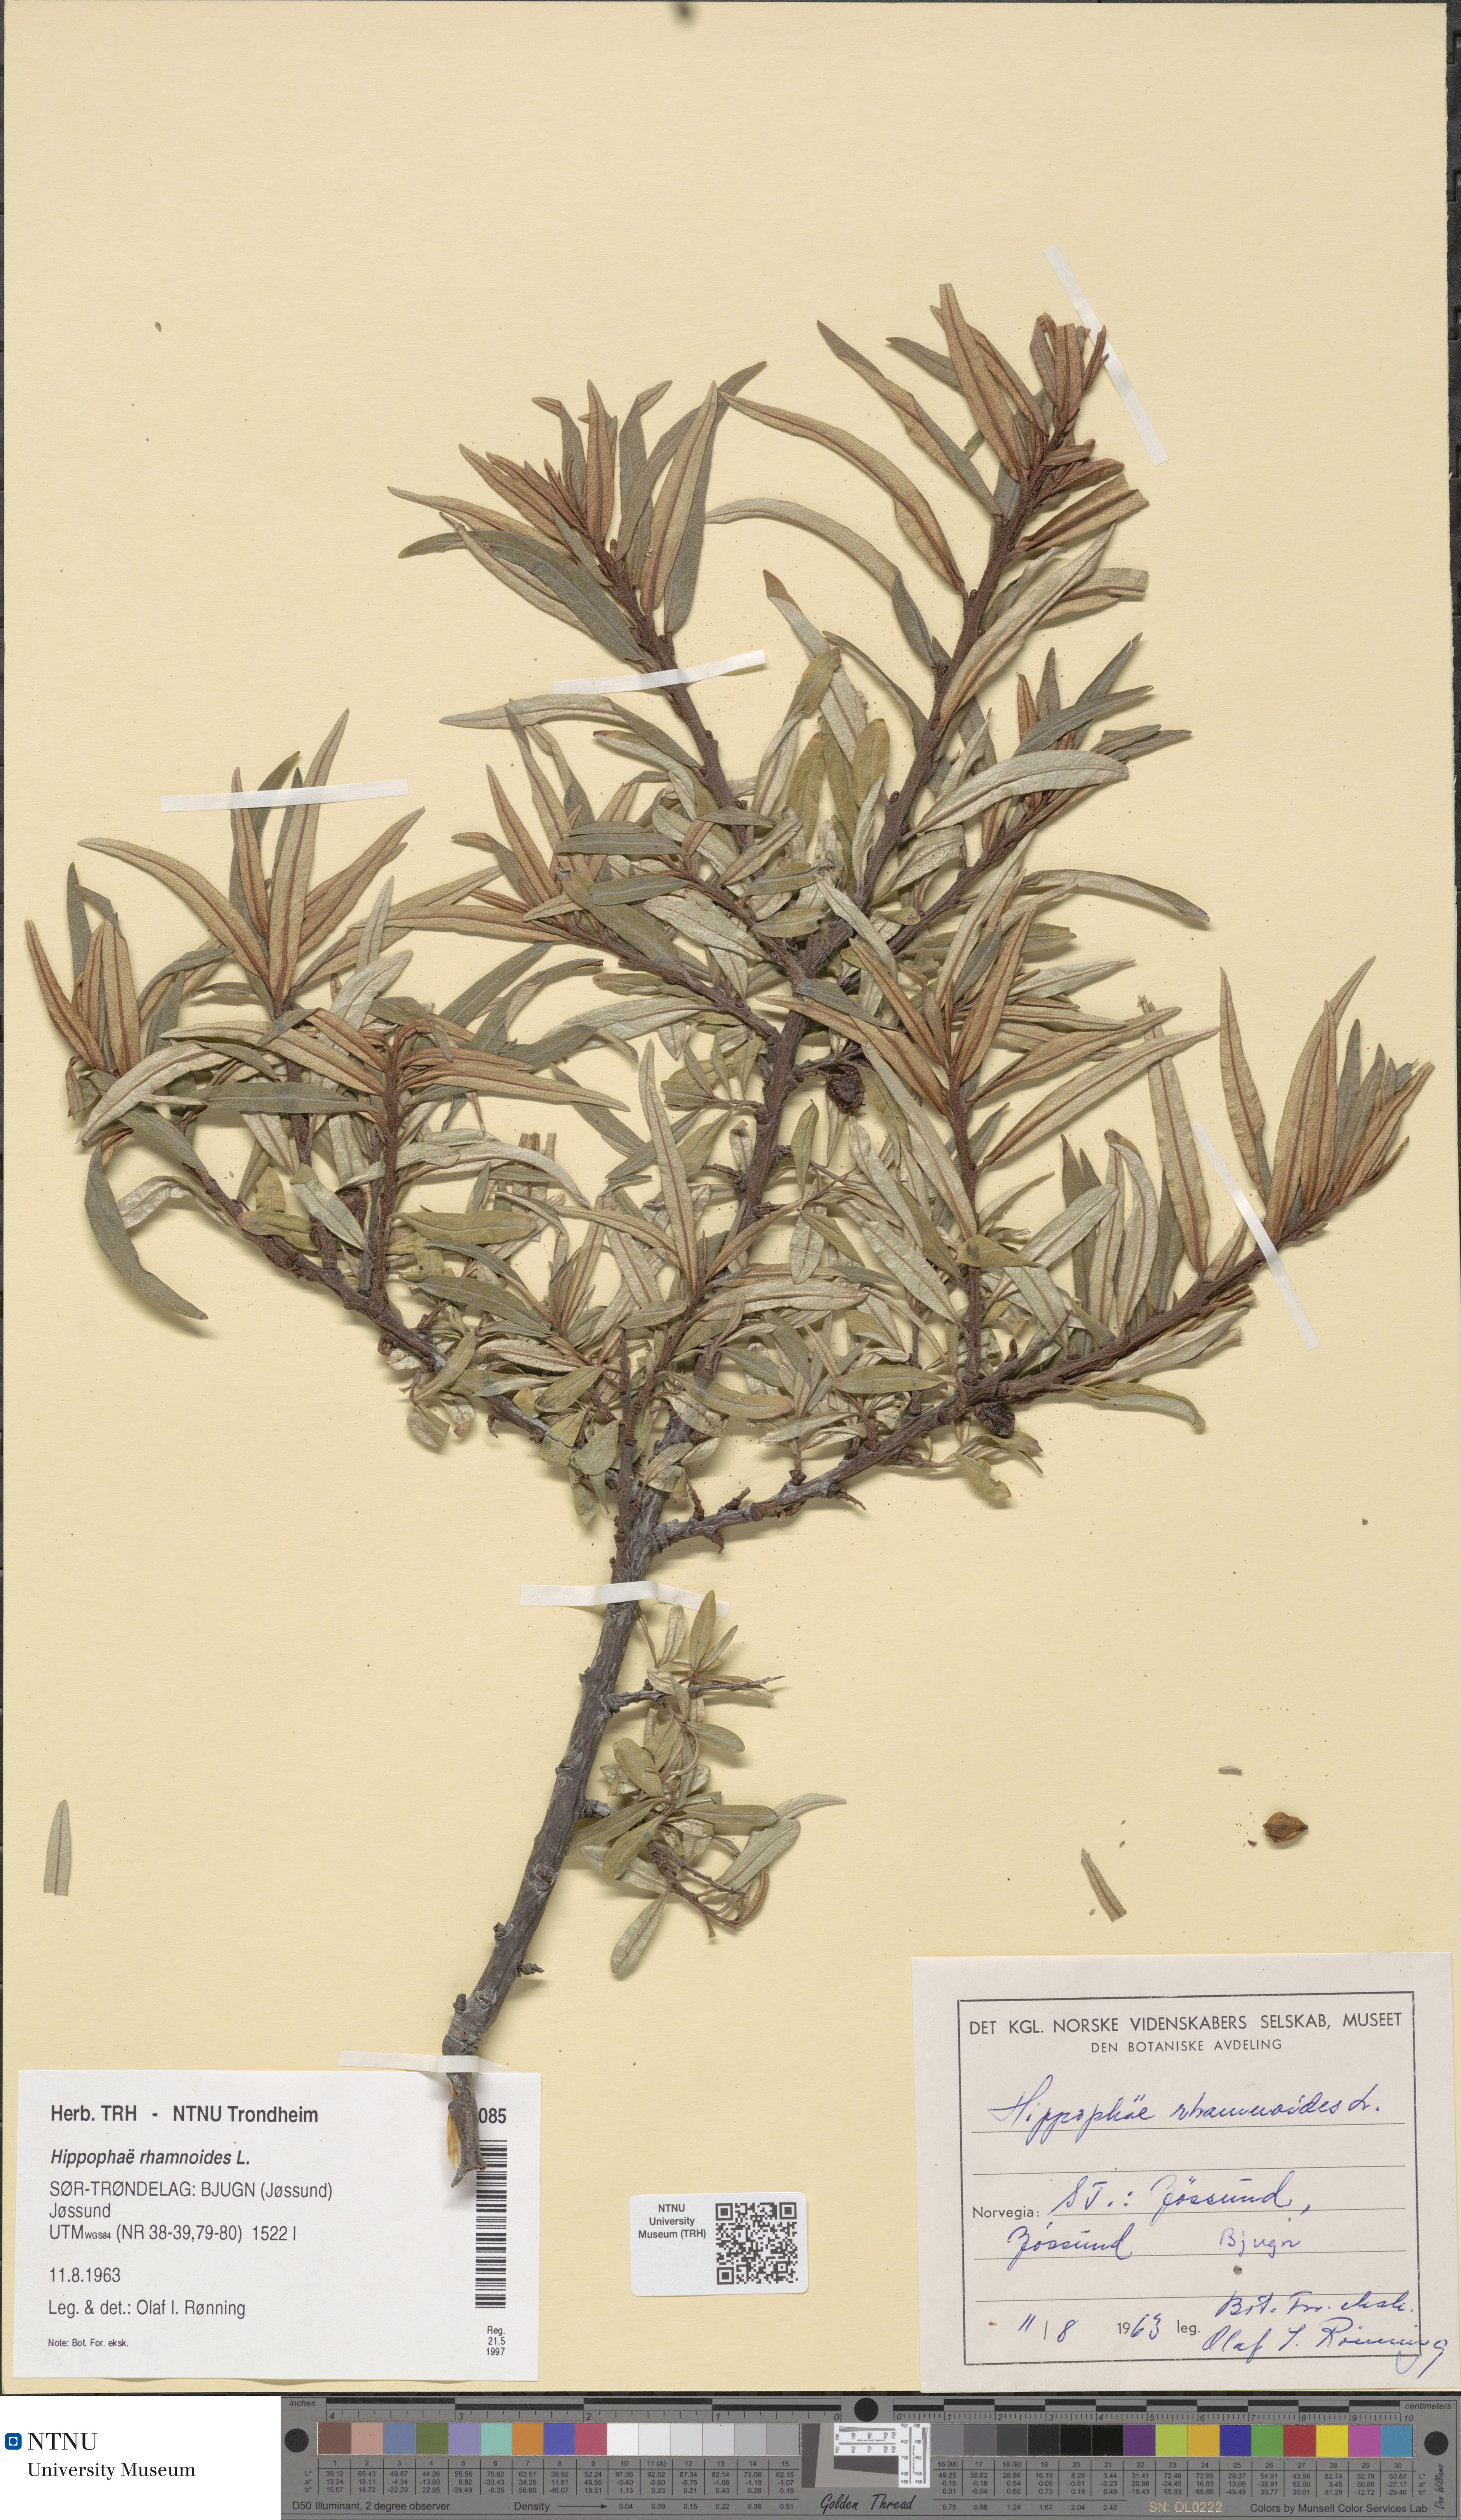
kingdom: Plantae
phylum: Tracheophyta
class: Magnoliopsida
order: Rosales
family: Elaeagnaceae
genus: Hippophae
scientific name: Hippophae rhamnoides
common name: Sea-buckthorn
